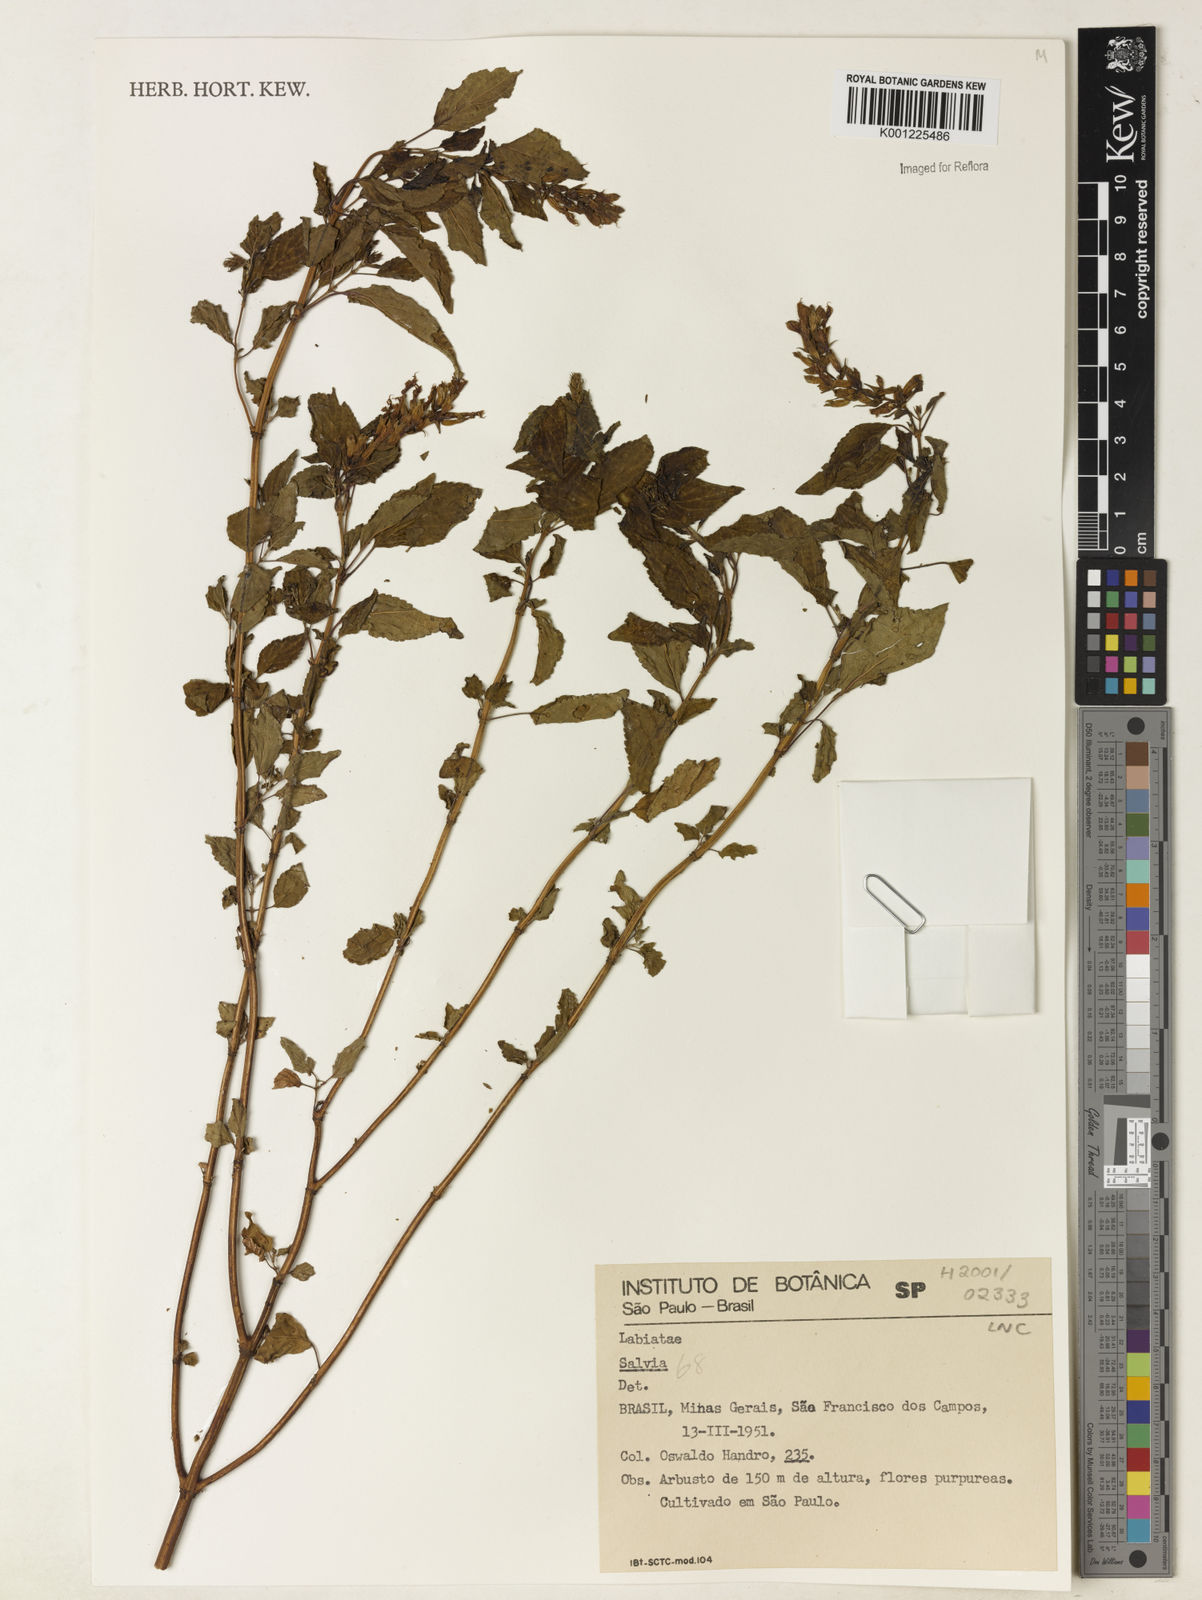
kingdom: Plantae
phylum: Tracheophyta
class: Magnoliopsida
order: Lamiales
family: Lamiaceae
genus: Salvia
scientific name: Salvia
